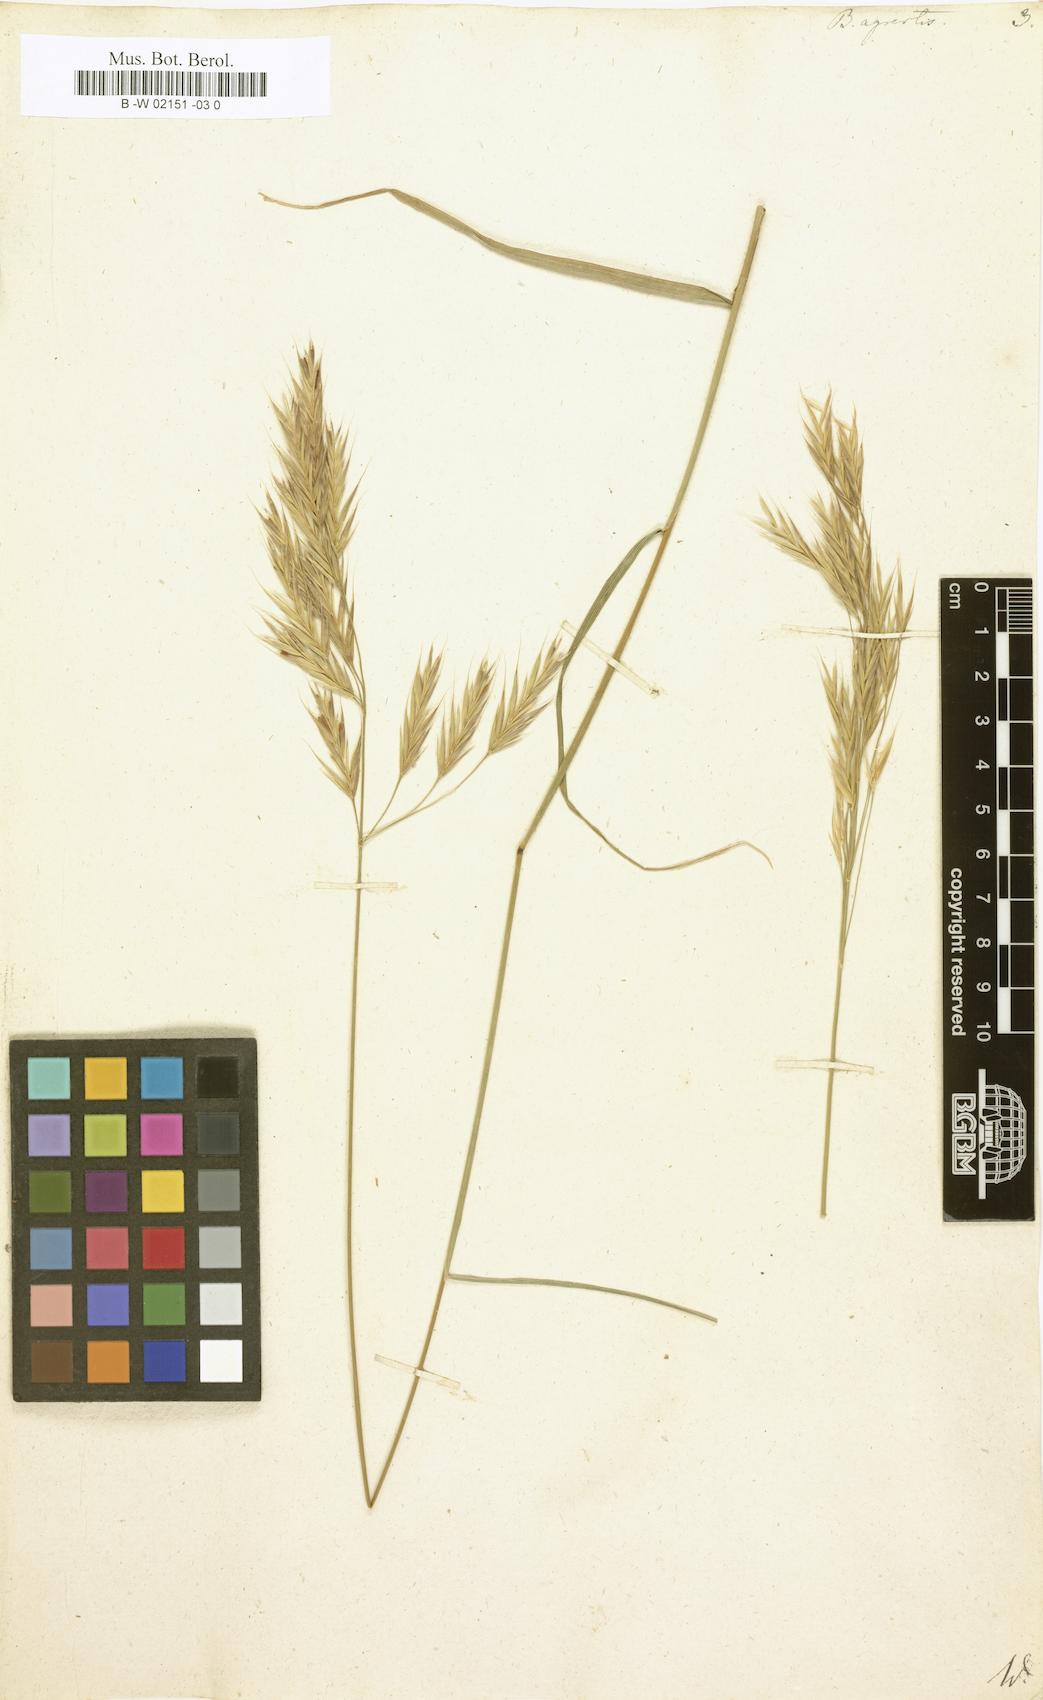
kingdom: Plantae
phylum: Tracheophyta
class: Liliopsida
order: Poales
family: Poaceae
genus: Bromus
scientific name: Bromus erectus
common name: Erect brome
